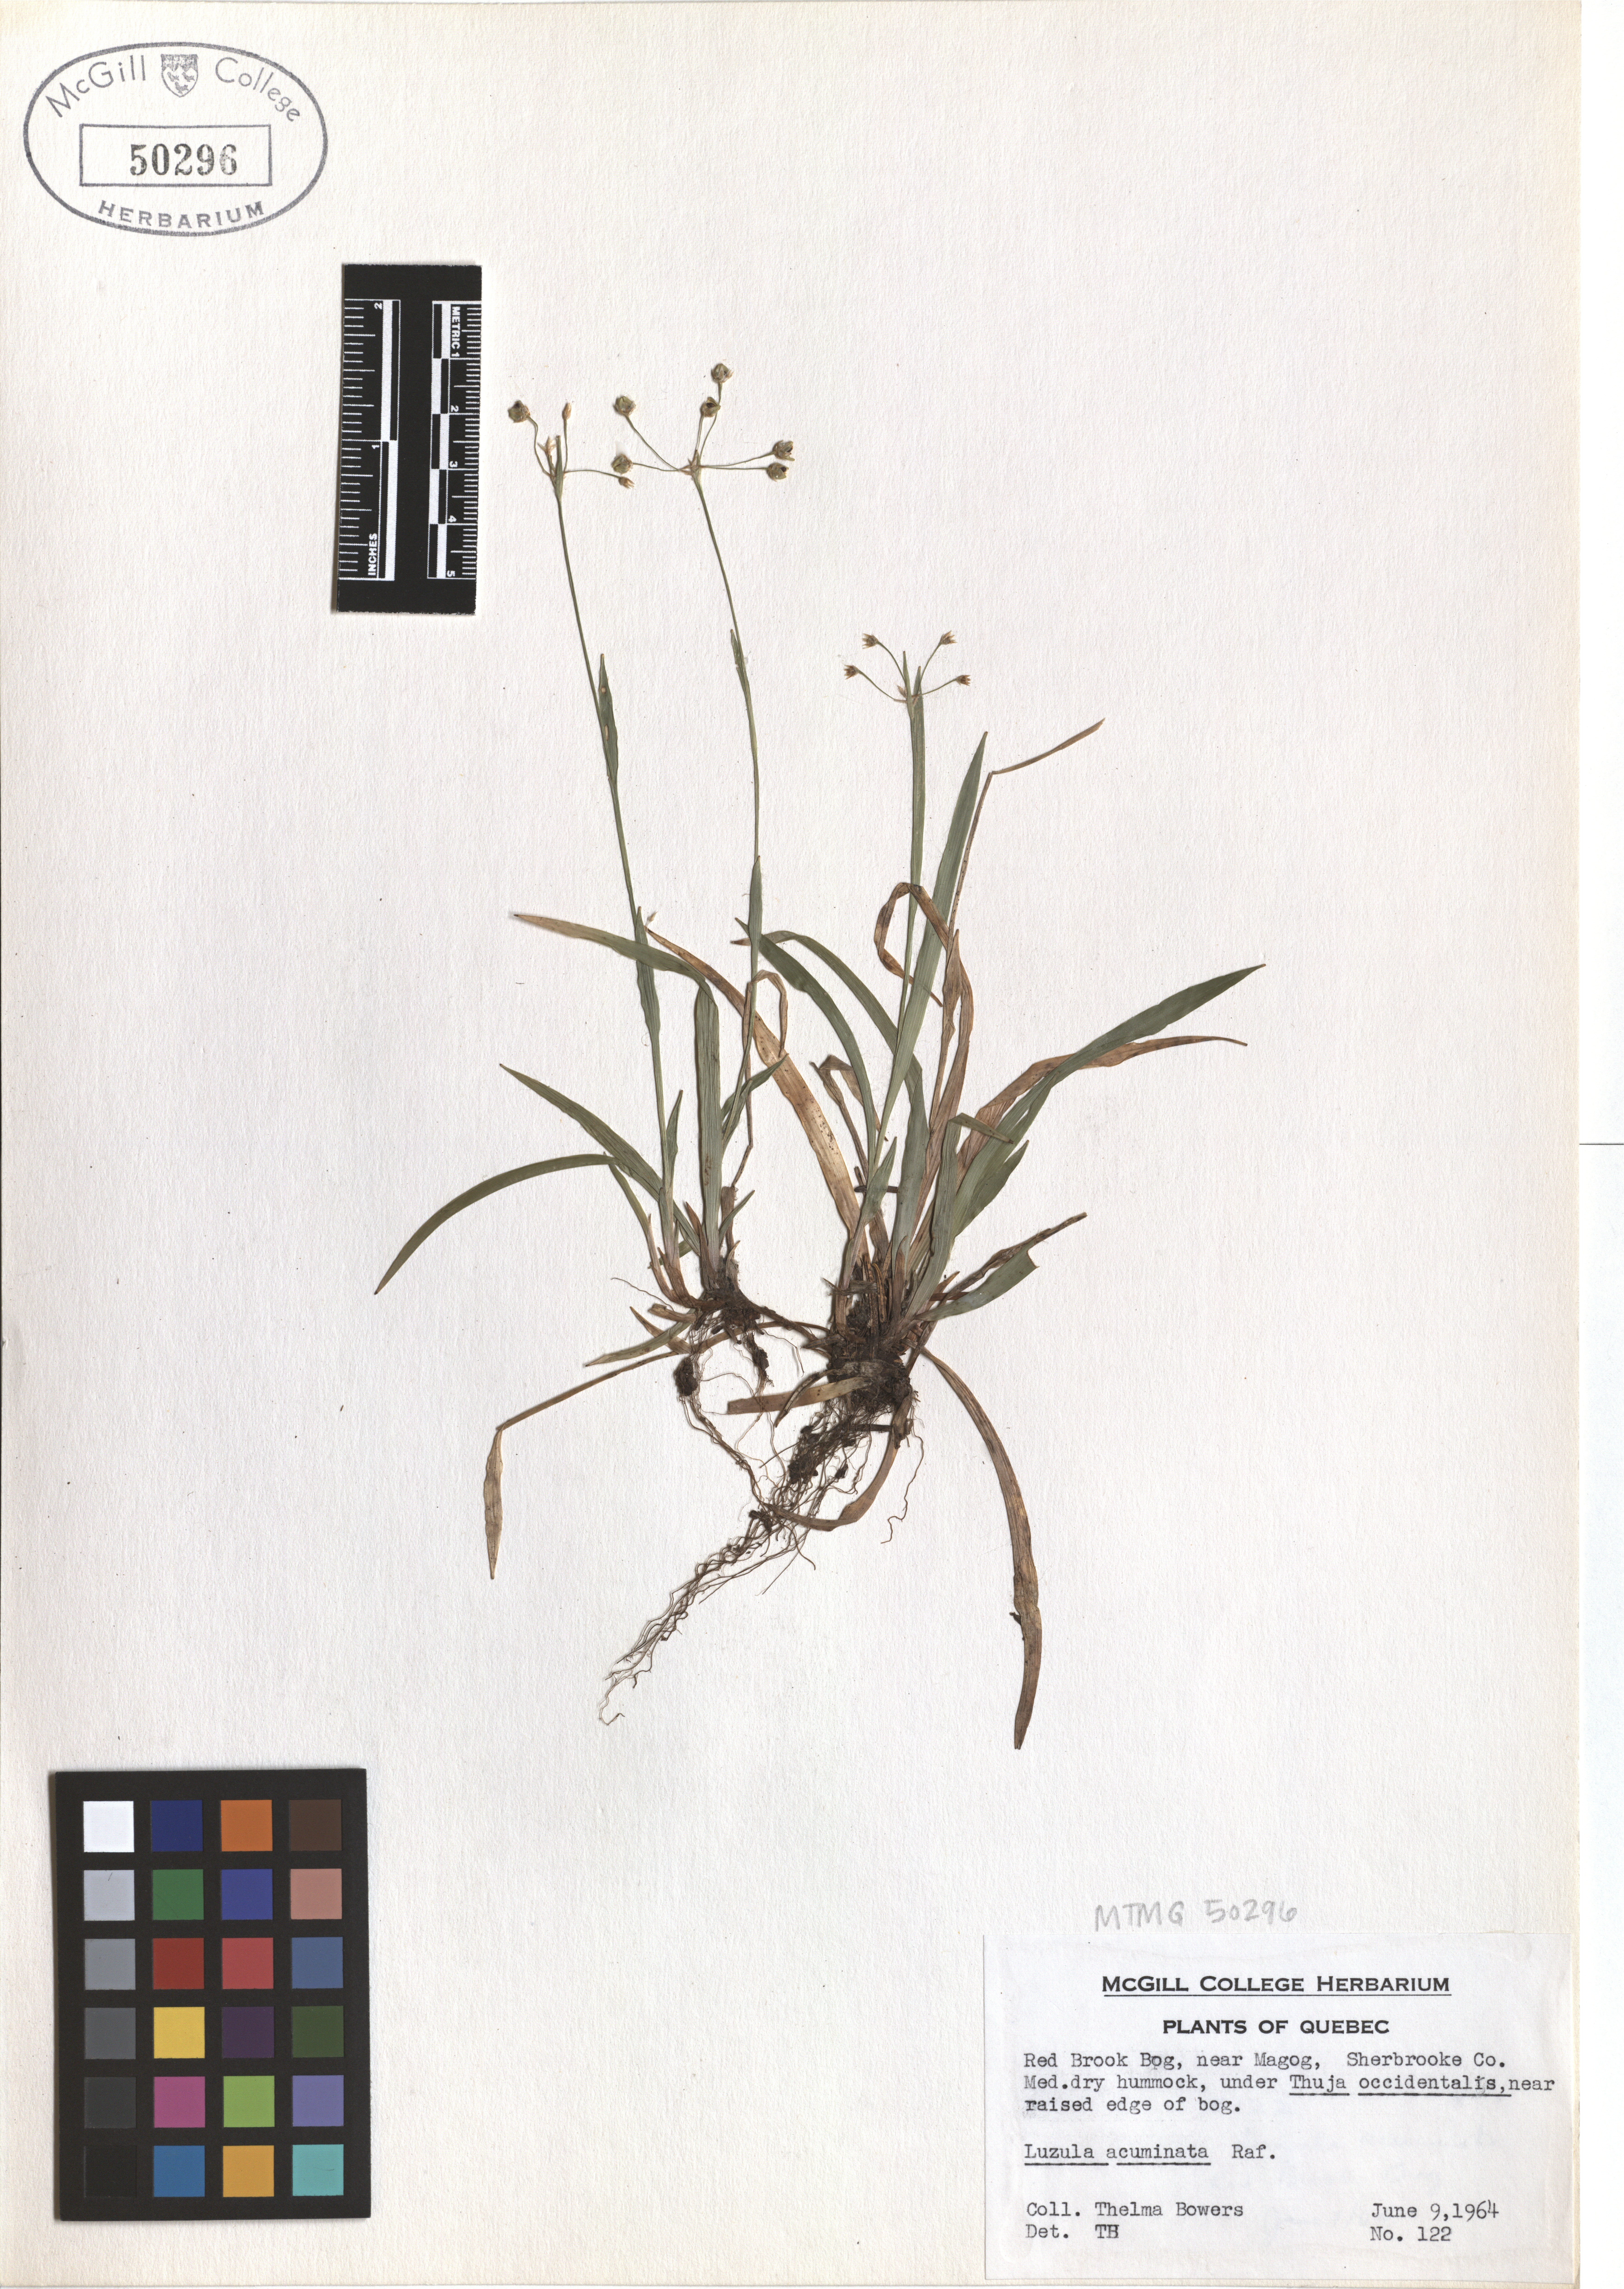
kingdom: Plantae
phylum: Tracheophyta
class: Liliopsida
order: Poales
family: Juncaceae
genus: Luzula
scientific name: Luzula acuminata
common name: Hairy woodrush
